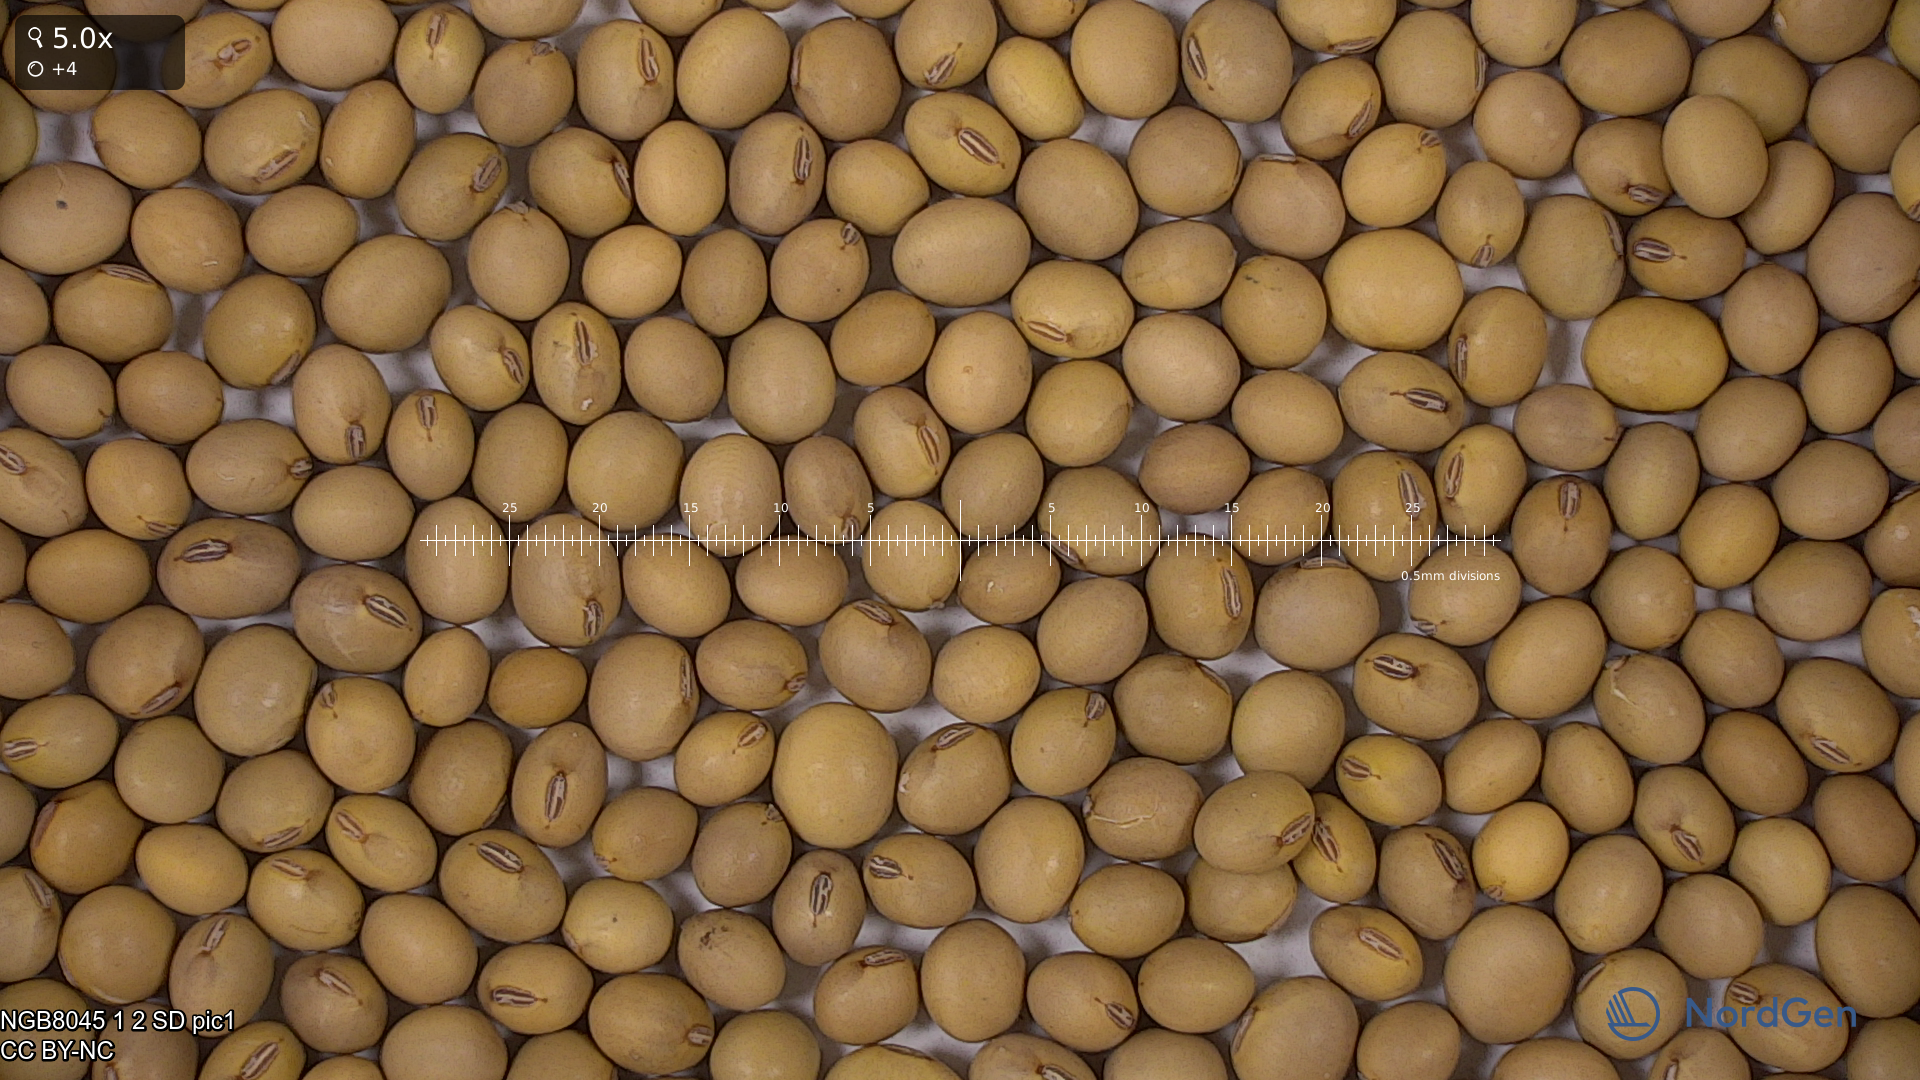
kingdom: Plantae
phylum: Tracheophyta
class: Magnoliopsida
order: Fabales
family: Fabaceae
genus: Glycine
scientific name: Glycine max
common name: Soya-bean
